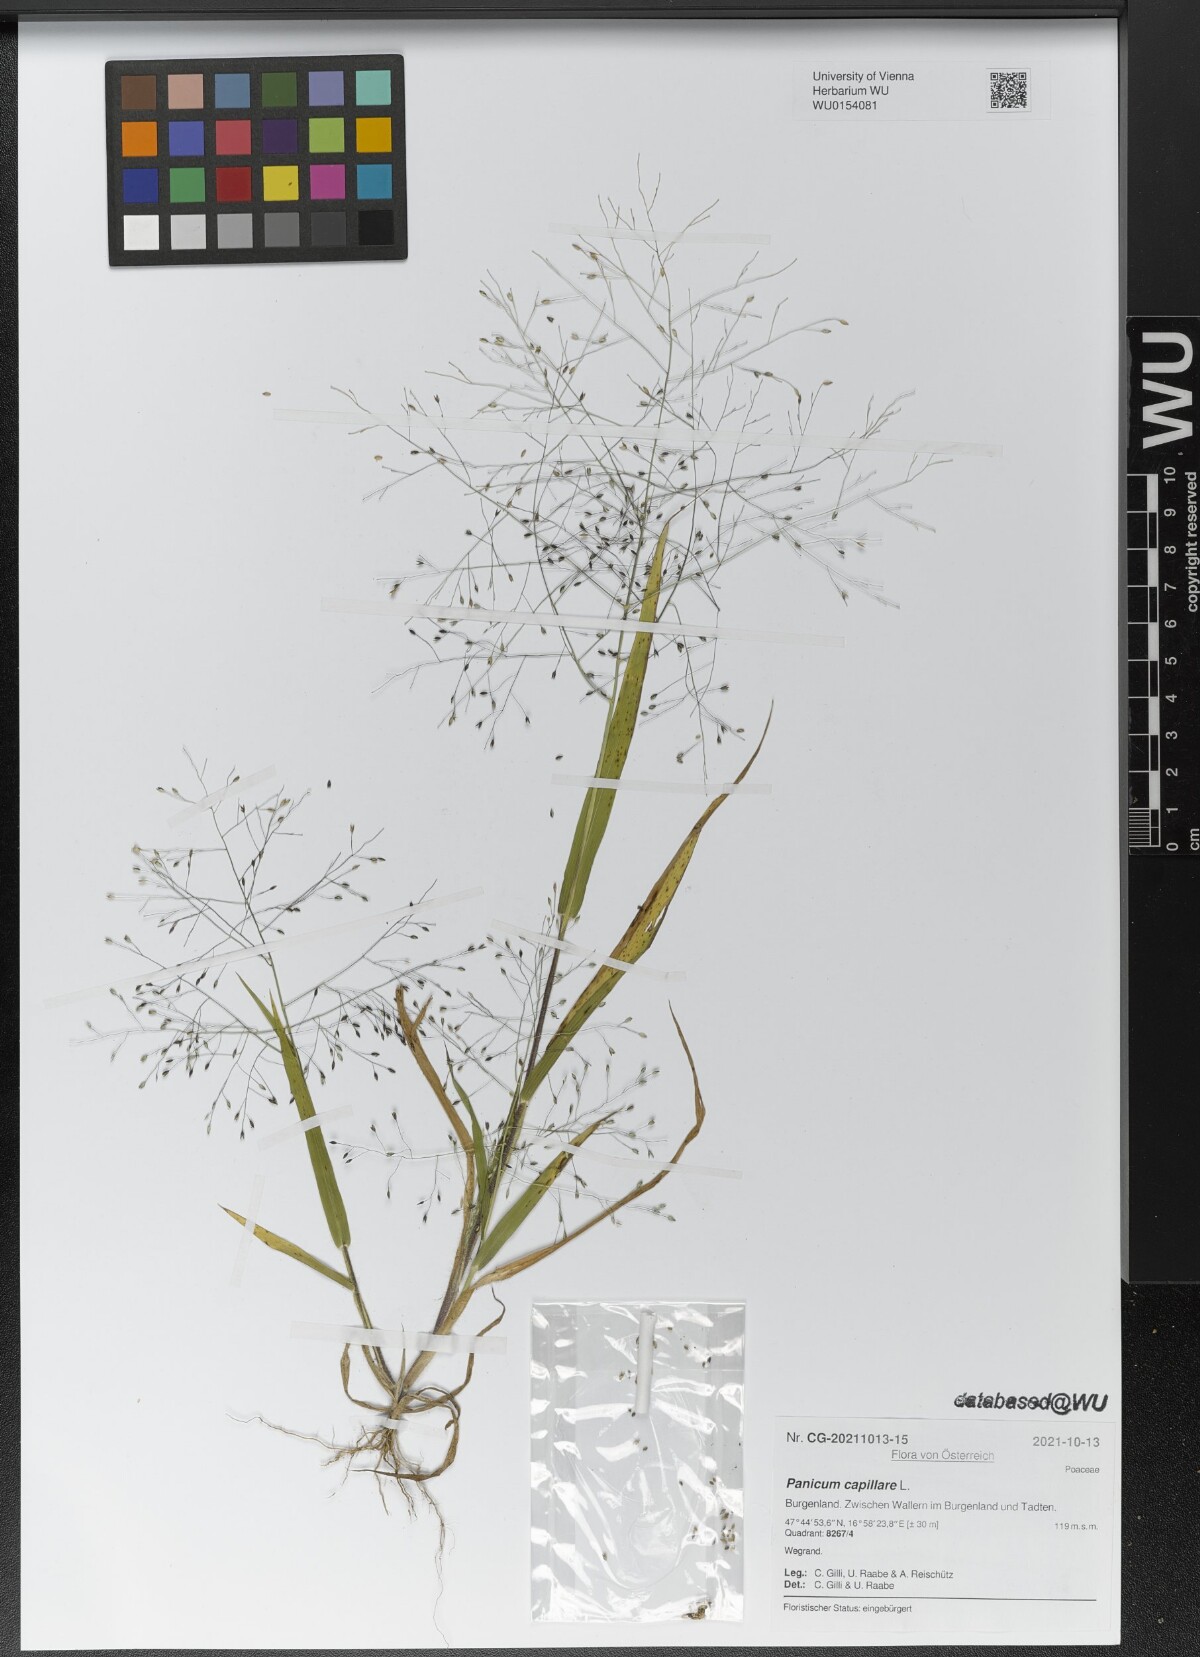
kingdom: Plantae
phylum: Tracheophyta
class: Liliopsida
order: Poales
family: Poaceae
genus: Panicum
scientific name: Panicum capillare
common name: Witch-grass
